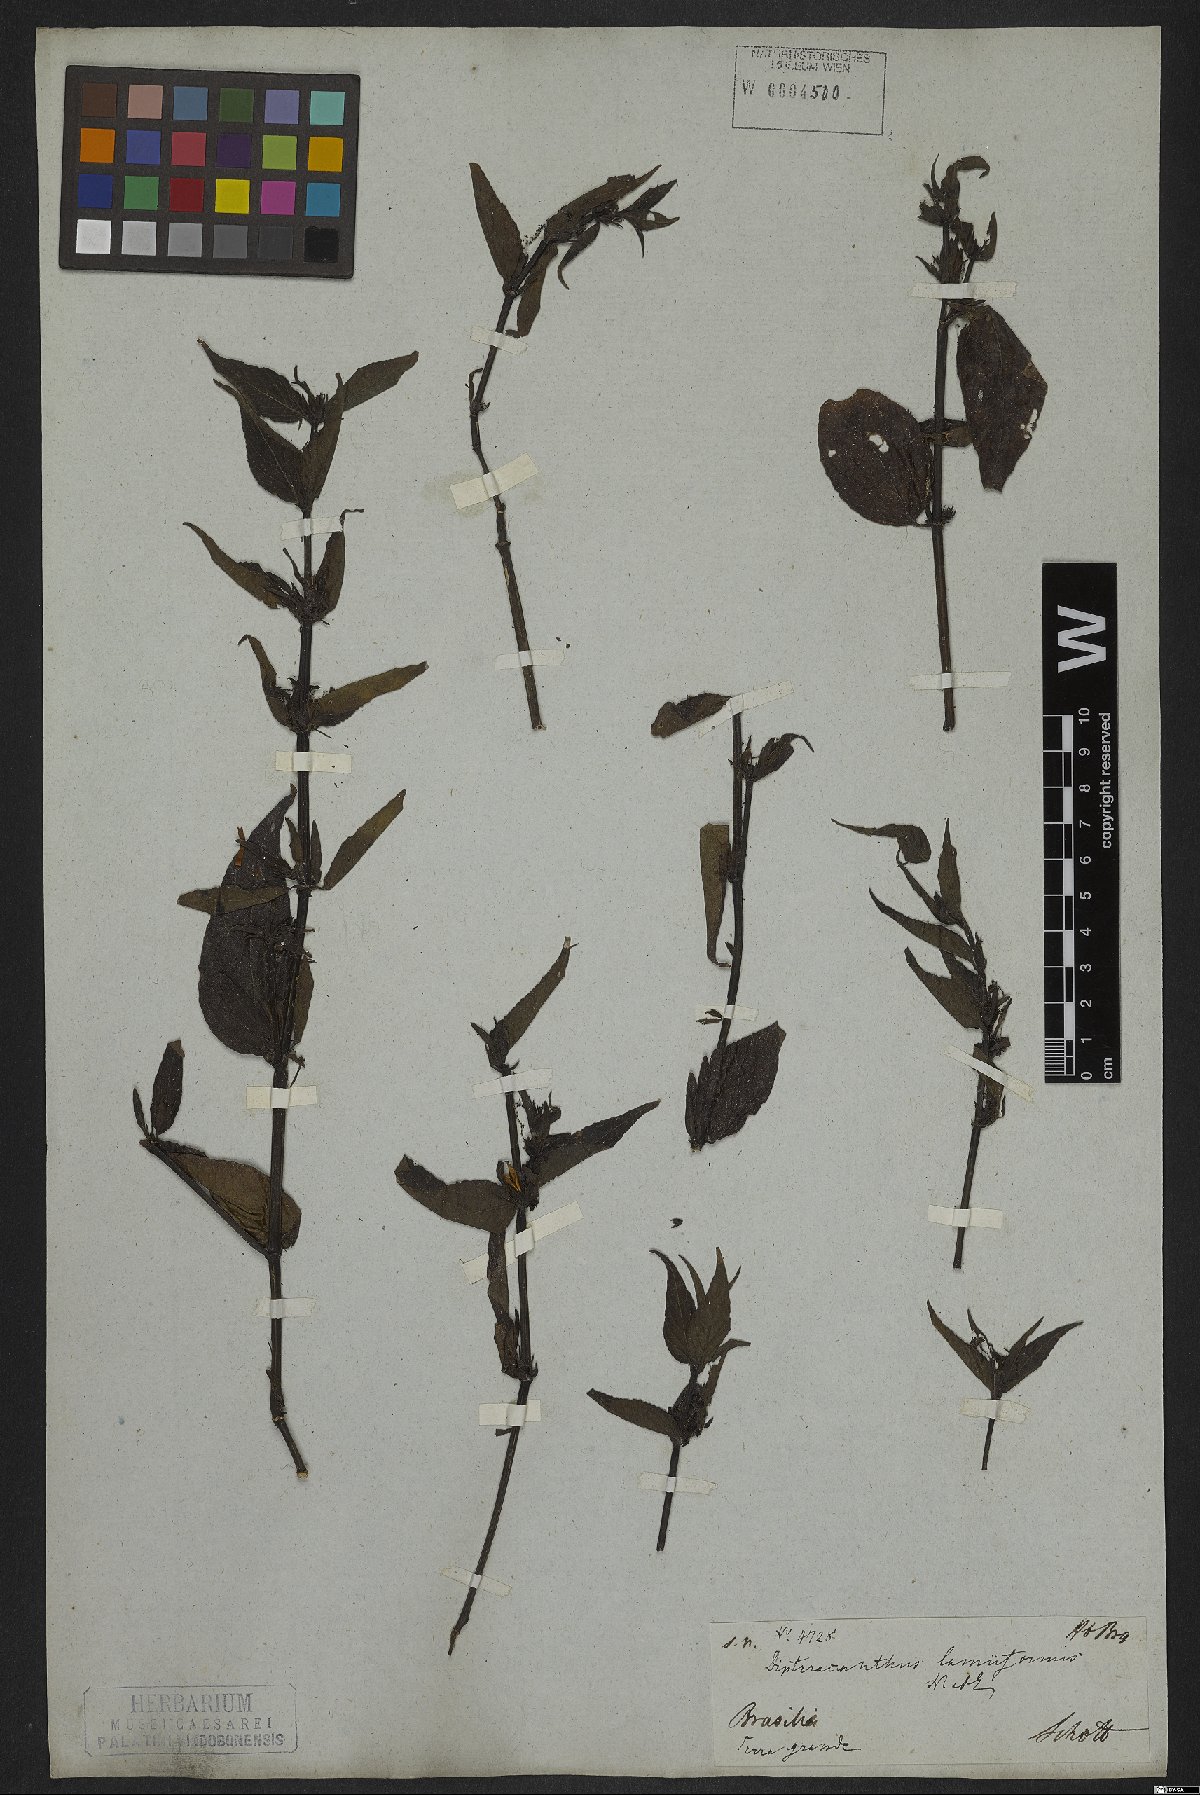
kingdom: Plantae
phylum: Tracheophyta
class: Magnoliopsida
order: Lamiales
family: Acanthaceae
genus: Ruellia
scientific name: Ruellia lamiiformis
